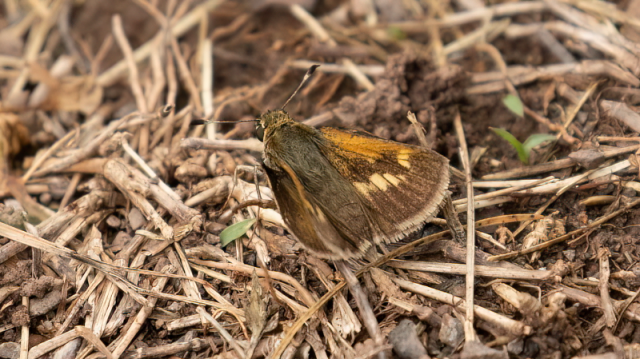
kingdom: Animalia
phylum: Arthropoda
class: Insecta
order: Lepidoptera
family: Hesperiidae
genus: Polites
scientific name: Polites
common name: Crossline Skipper
